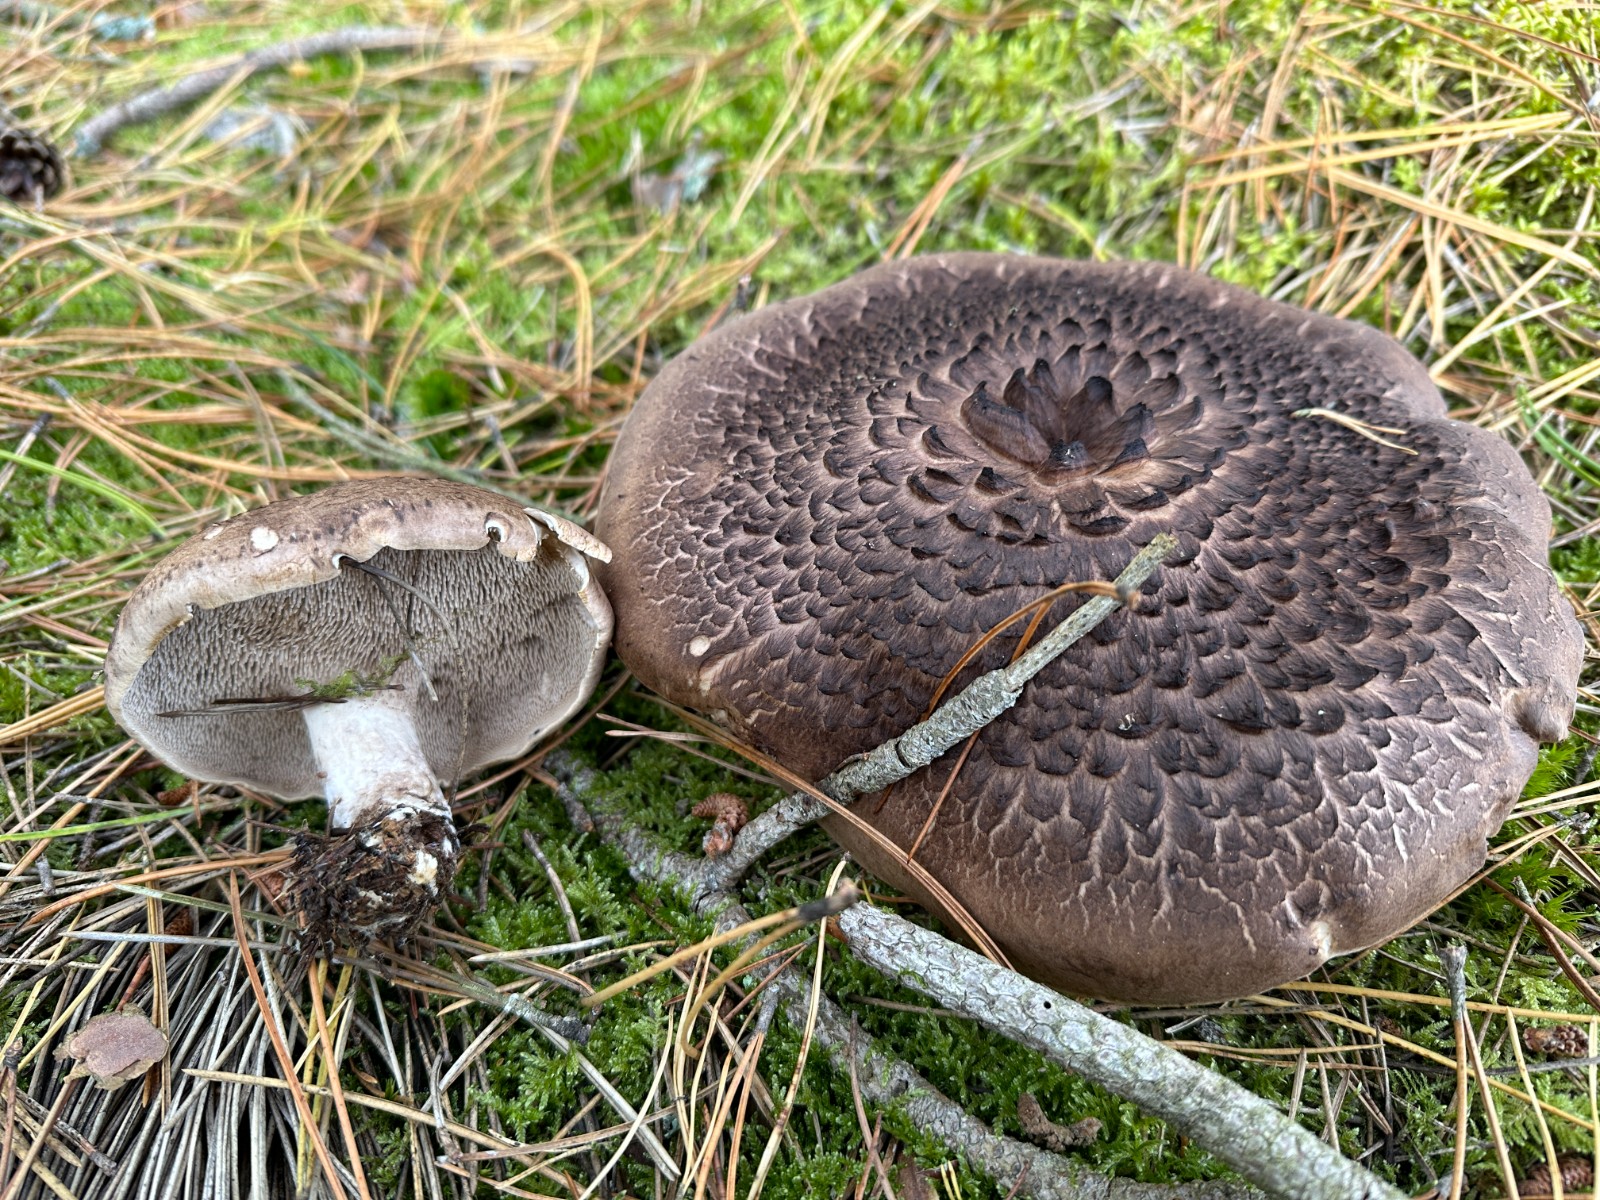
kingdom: Fungi
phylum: Basidiomycota
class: Agaricomycetes
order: Thelephorales
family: Bankeraceae
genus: Sarcodon
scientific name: Sarcodon squamosus
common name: småskællet kødpigsvamp
